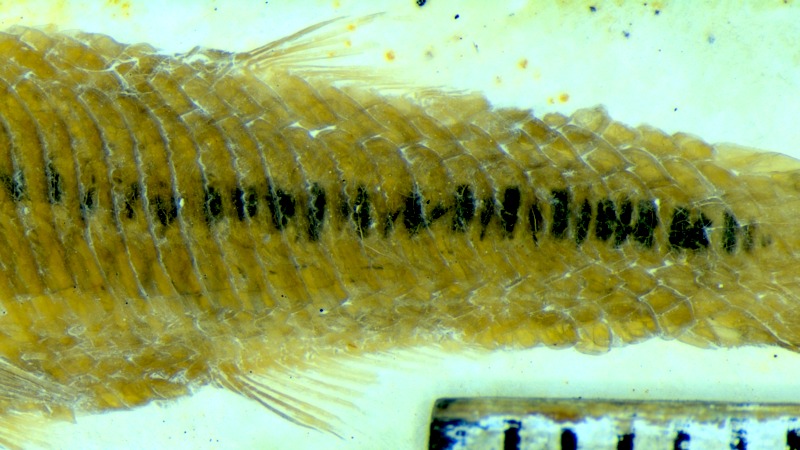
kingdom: Animalia
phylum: Chordata
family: Pleuropholidae
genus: Pleuropholis
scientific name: Pleuropholis laevissima
